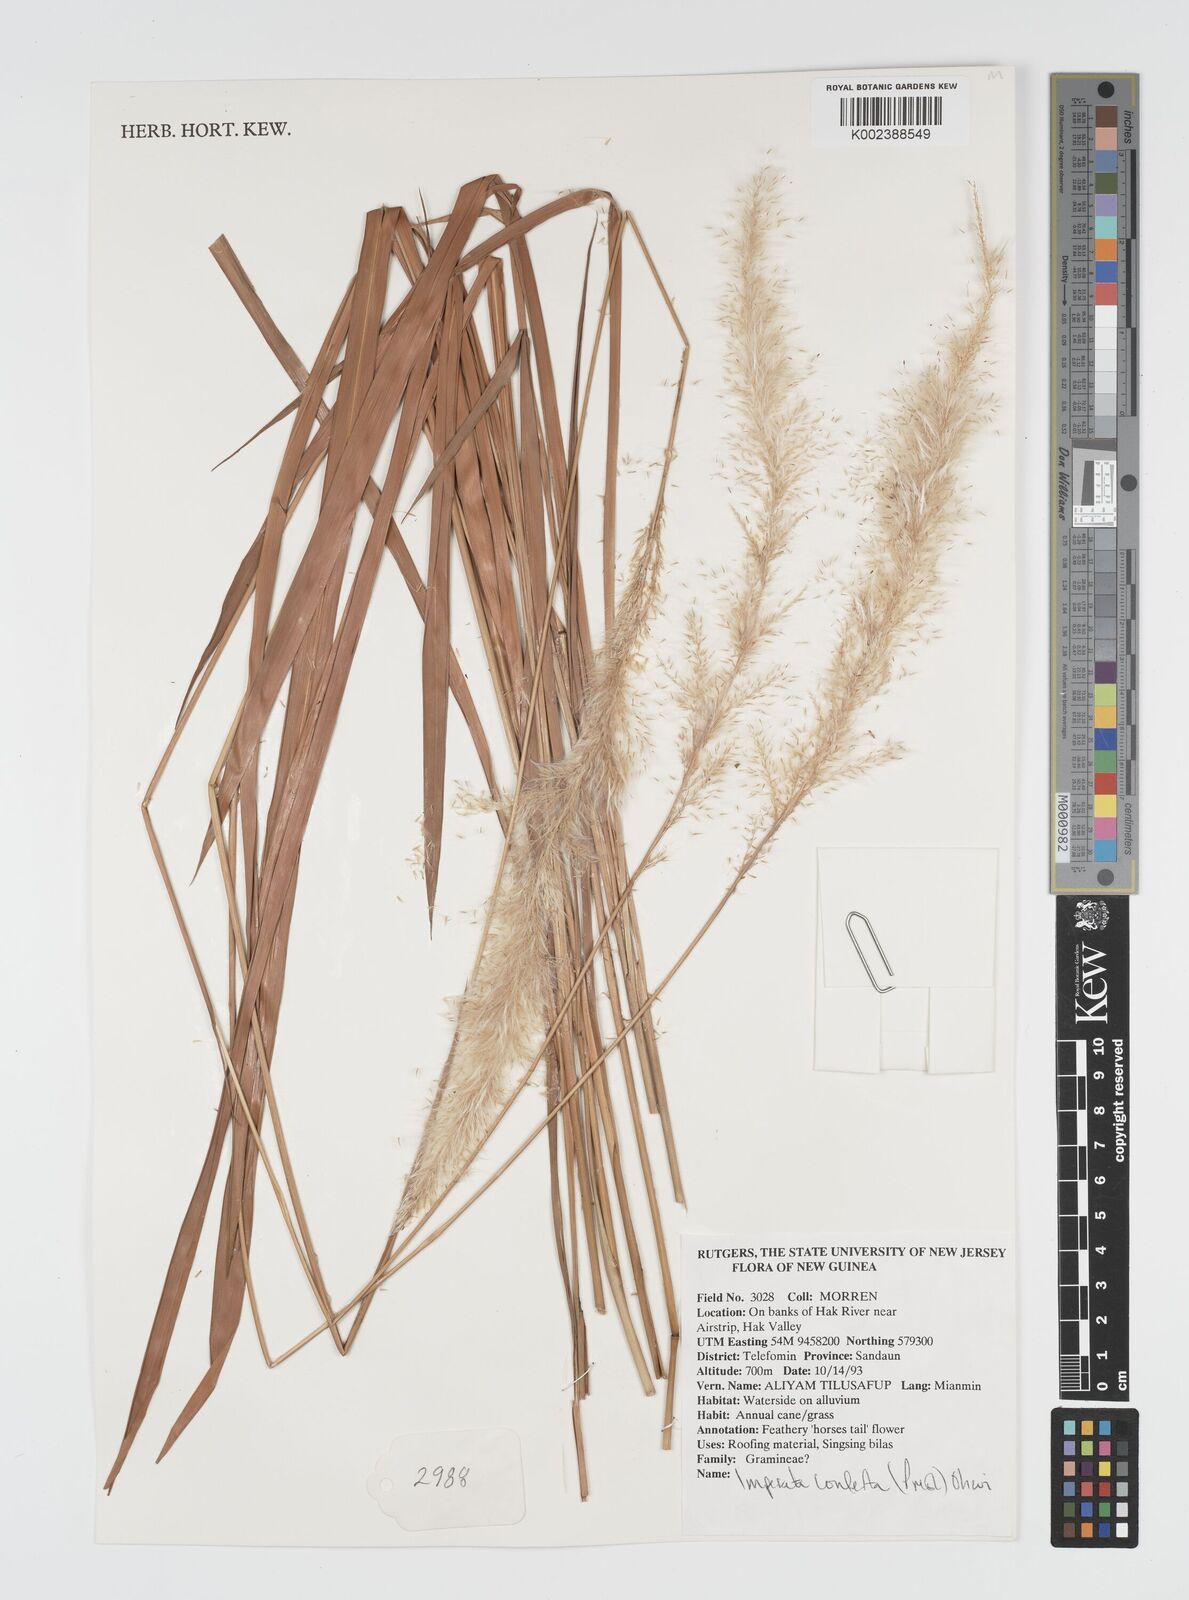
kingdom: Plantae
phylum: Tracheophyta
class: Liliopsida
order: Poales
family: Poaceae
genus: Imperata
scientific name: Imperata conferta
